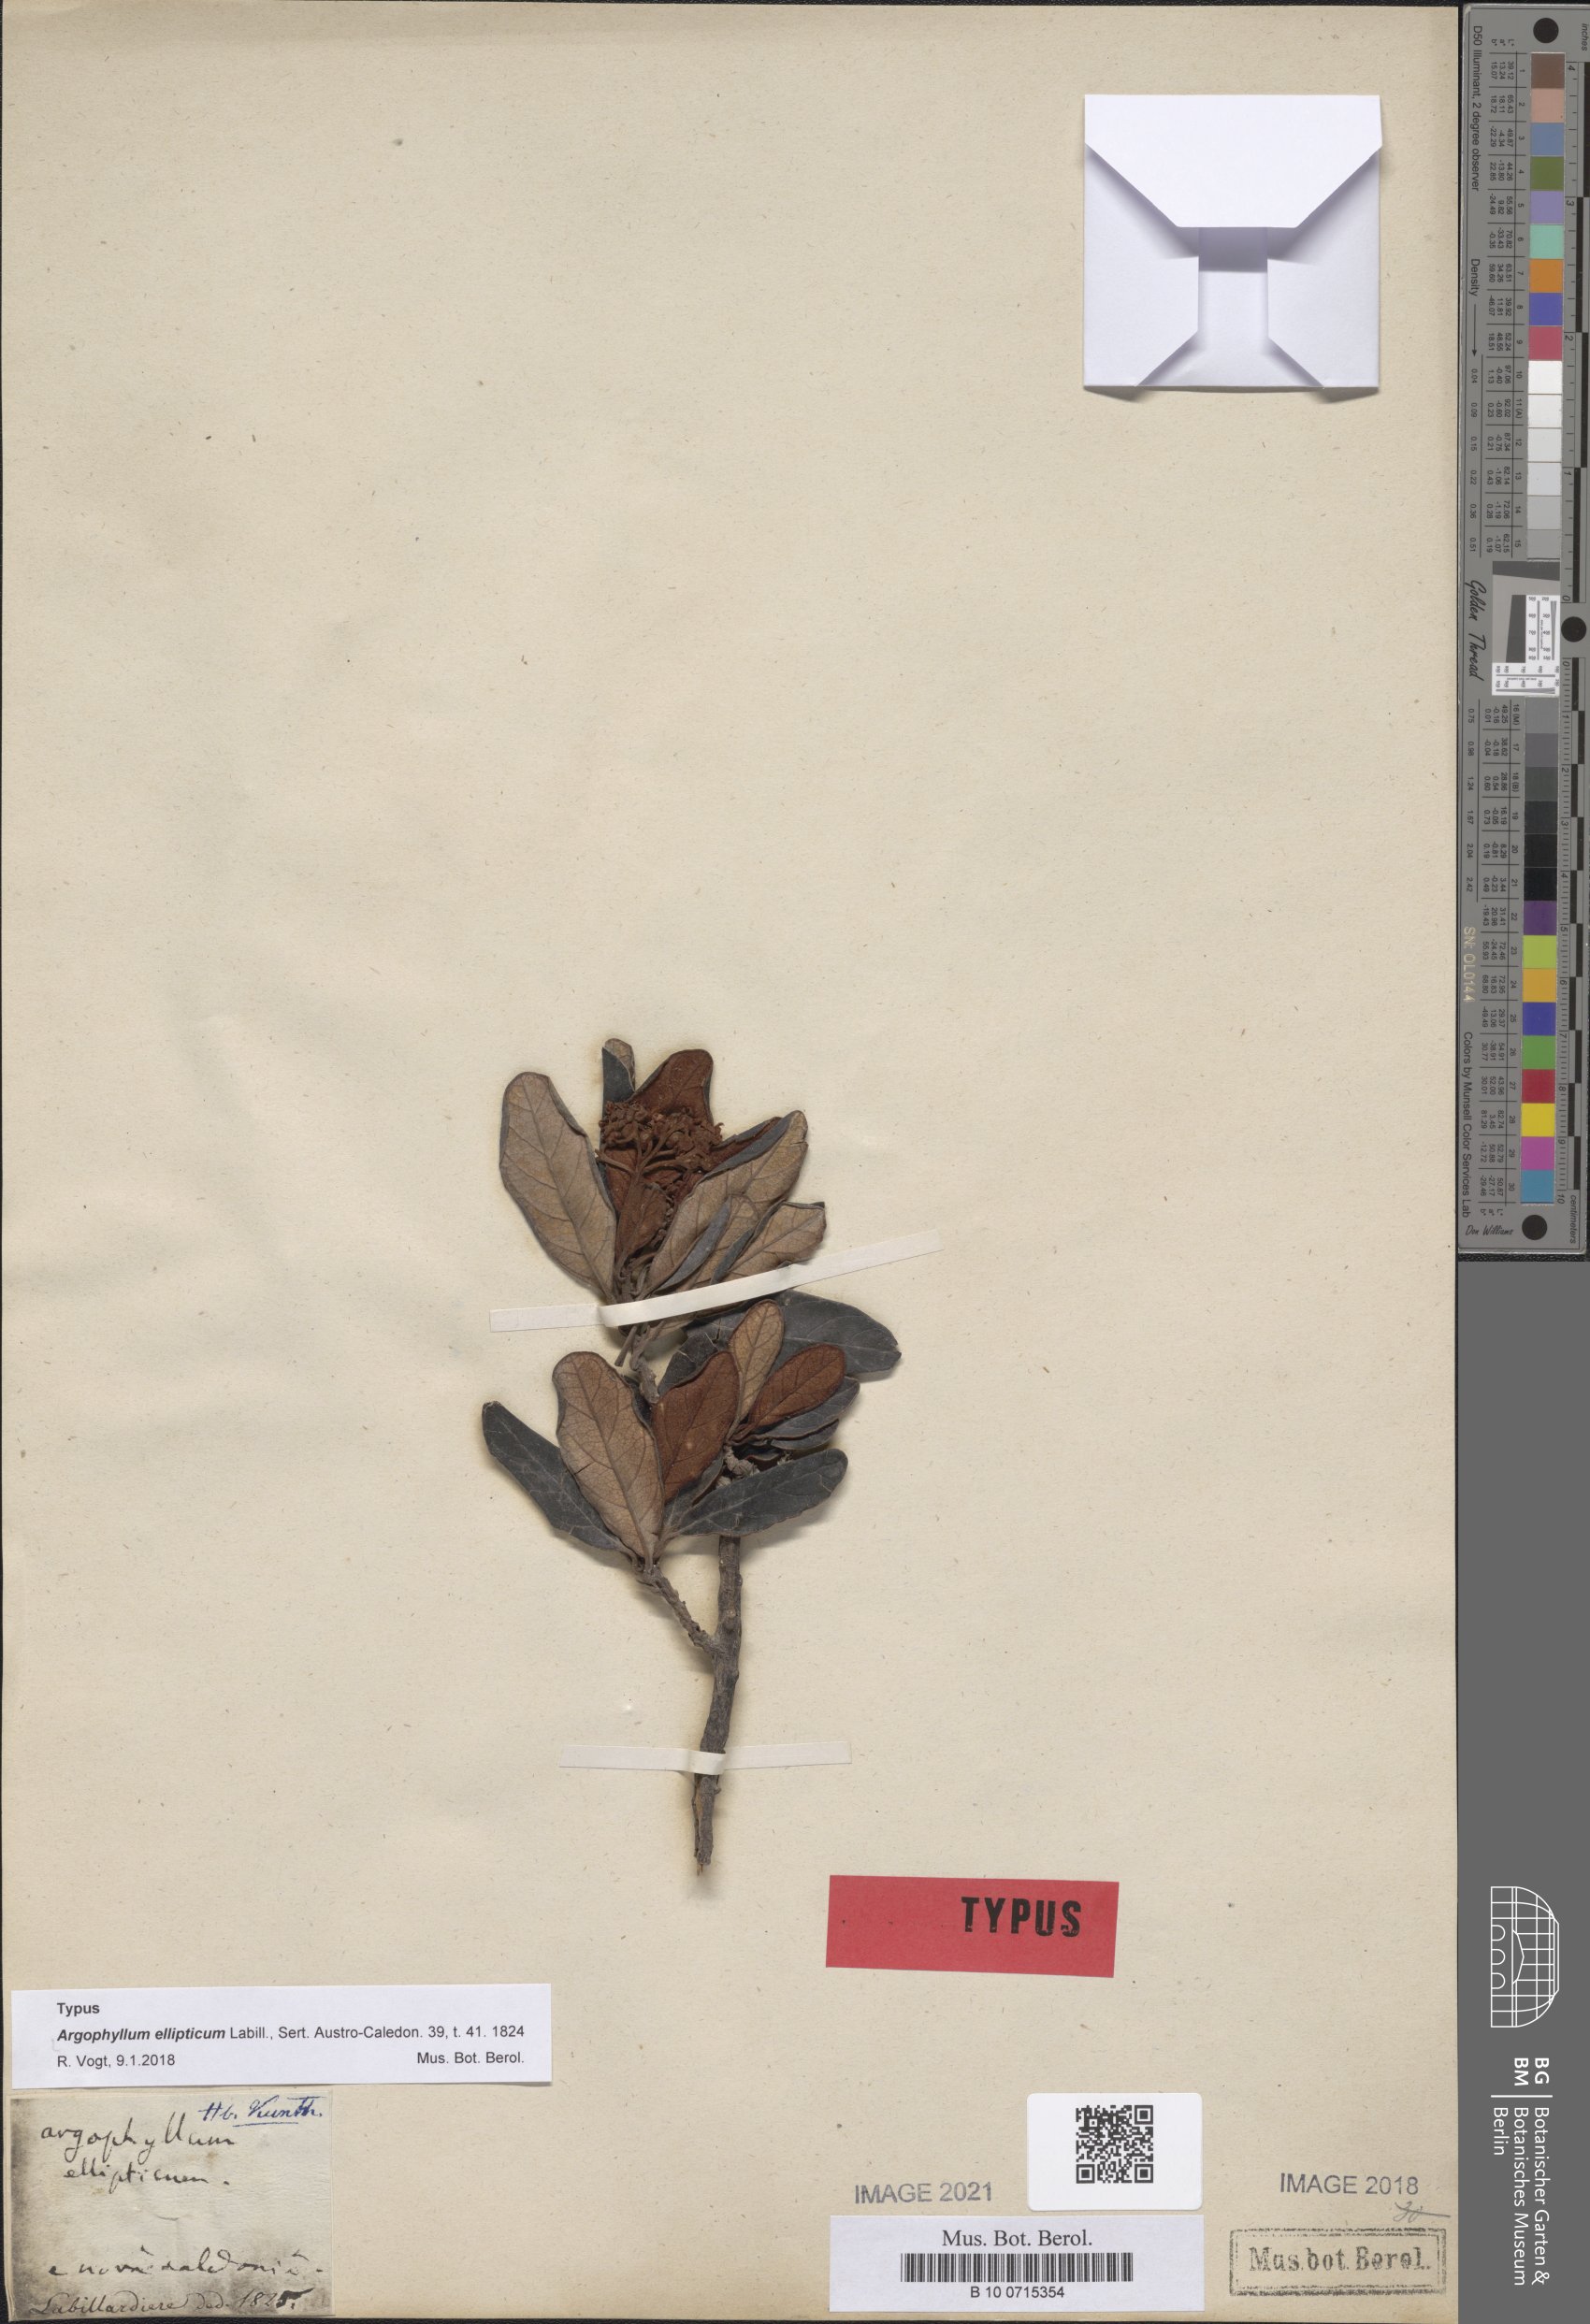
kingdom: Plantae
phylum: Tracheophyta
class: Magnoliopsida
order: Asterales
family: Argophyllaceae
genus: Argophyllum
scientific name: Argophyllum ellipticum
